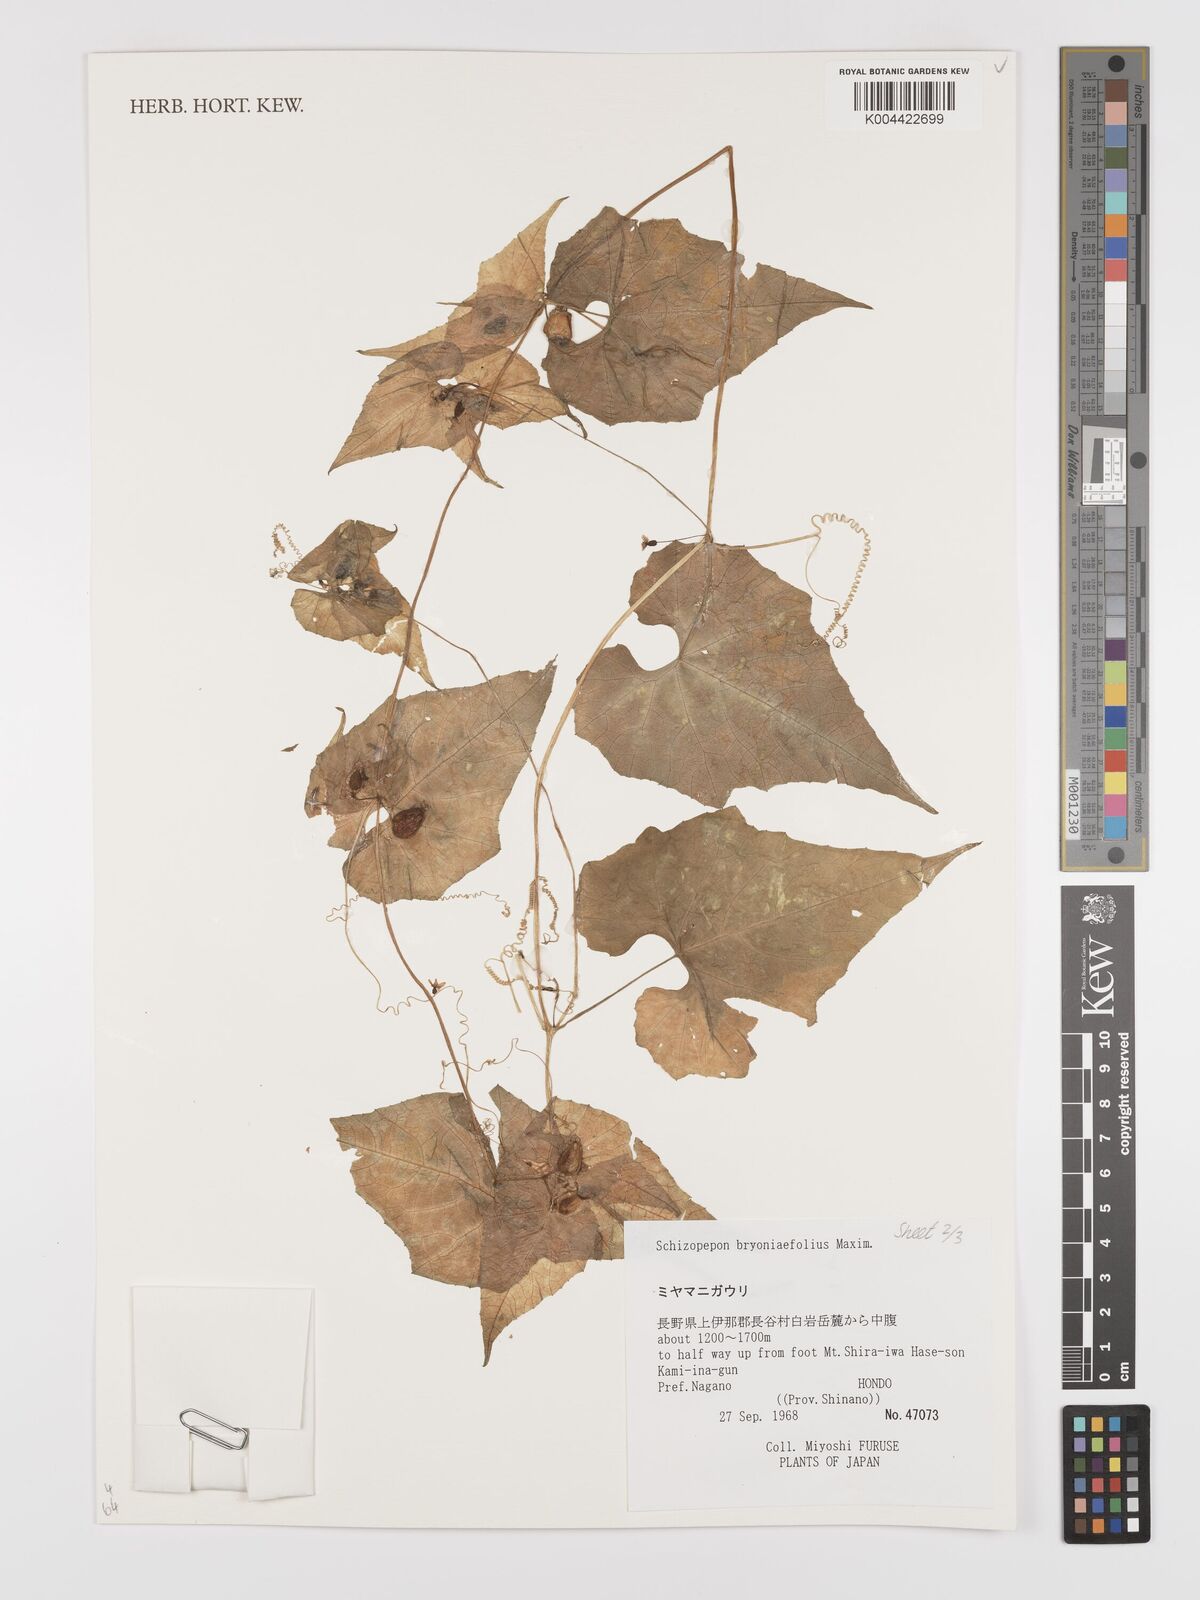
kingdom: Plantae
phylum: Tracheophyta
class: Magnoliopsida
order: Cucurbitales
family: Cucurbitaceae
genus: Schizopepon
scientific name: Schizopepon bryoniifolius
